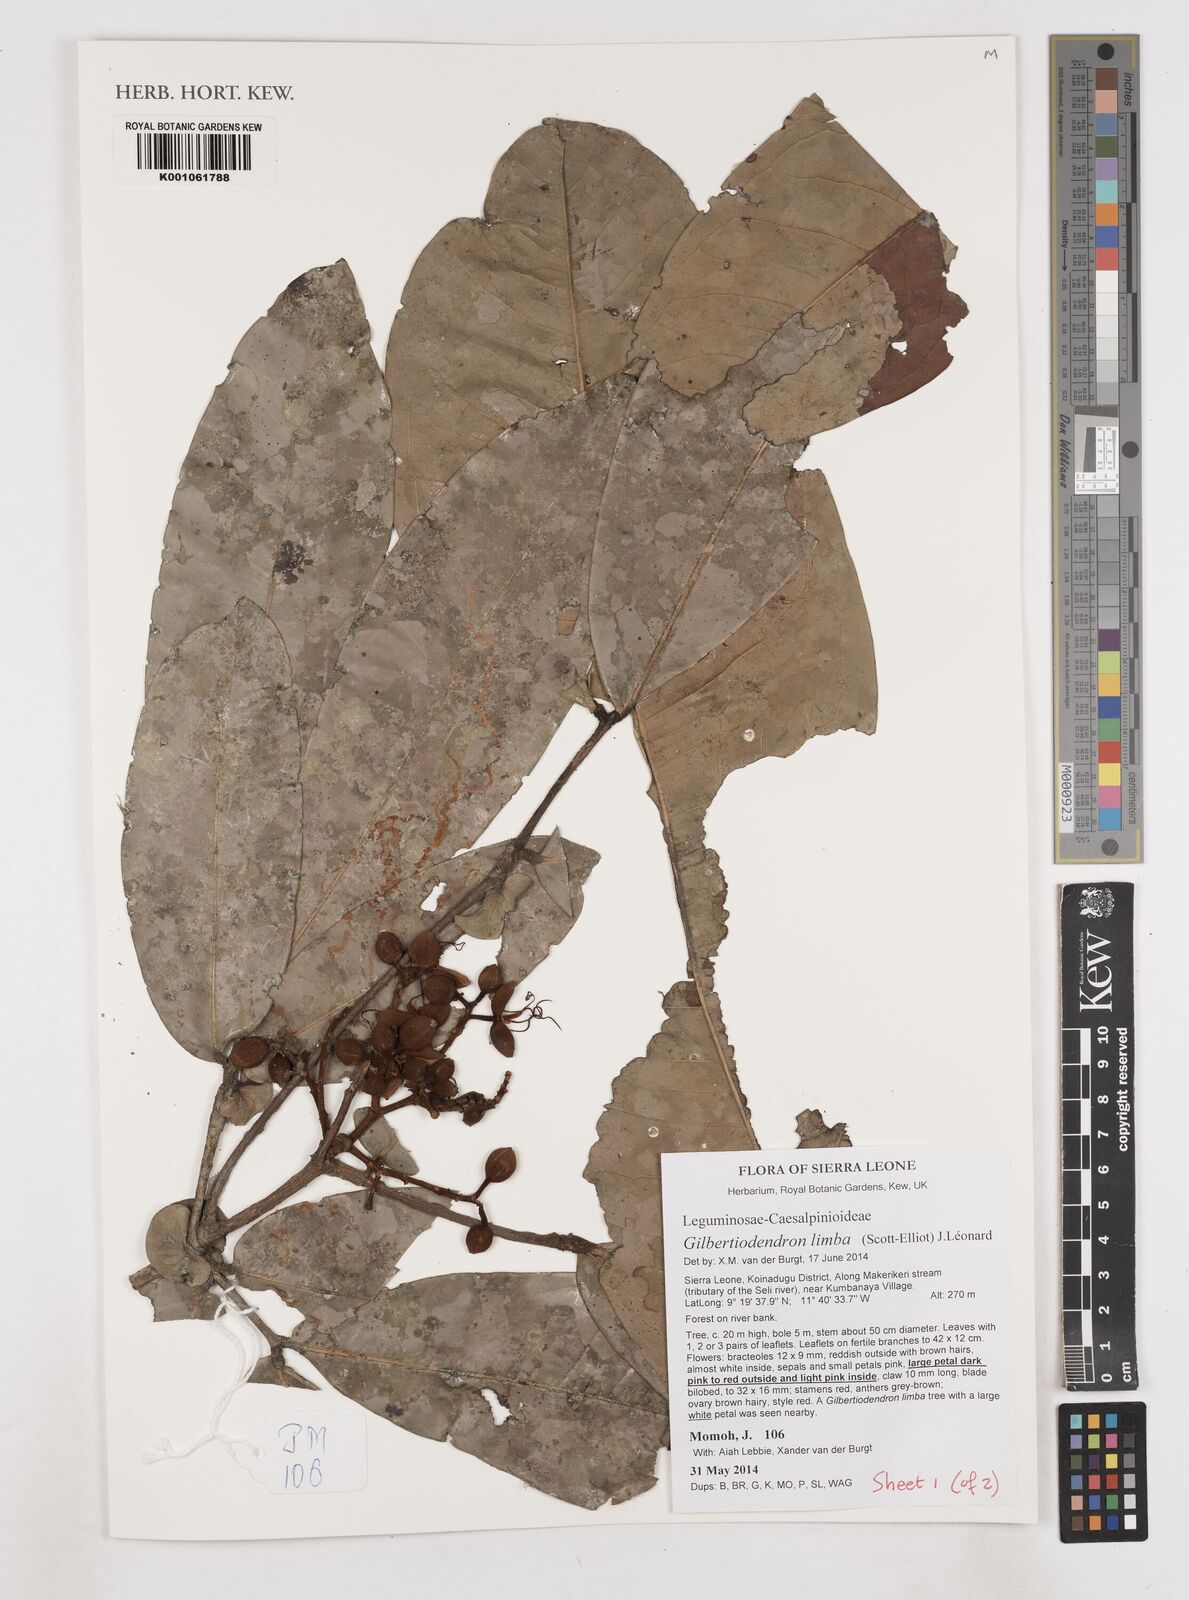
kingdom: Plantae
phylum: Tracheophyta
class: Magnoliopsida
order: Fabales
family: Fabaceae
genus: Gilbertiodendron
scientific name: Gilbertiodendron limba
